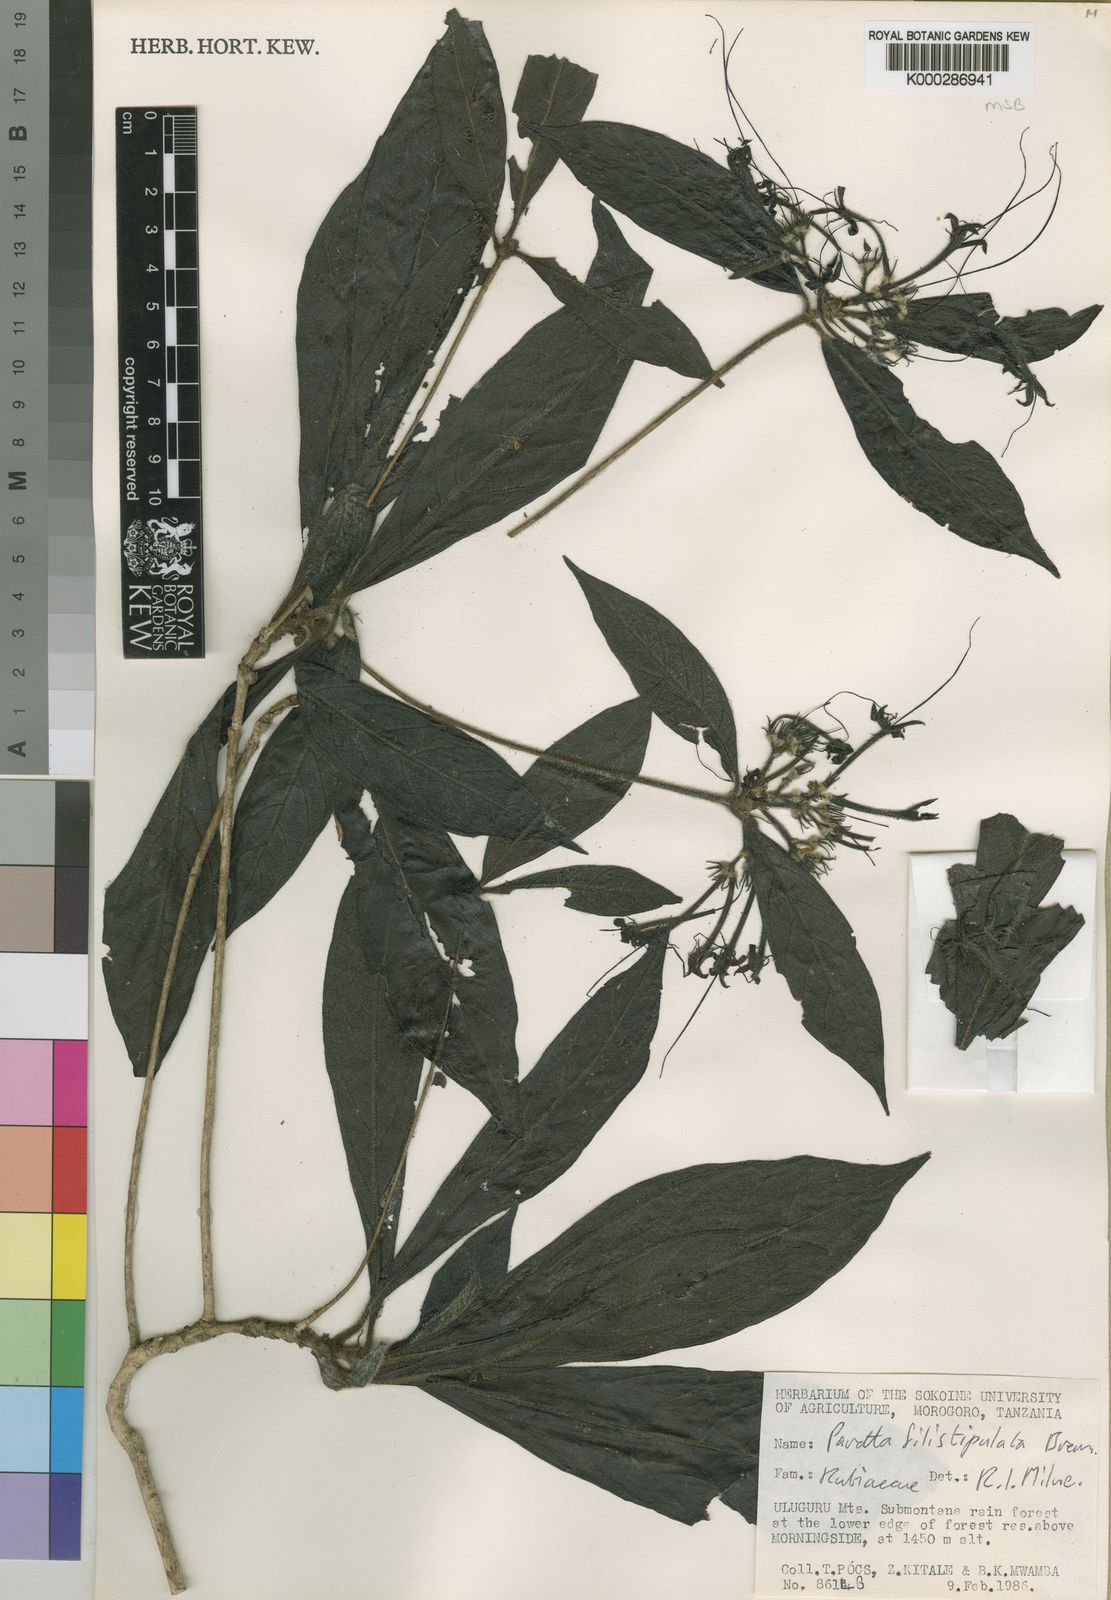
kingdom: Plantae
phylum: Tracheophyta
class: Magnoliopsida
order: Gentianales
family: Rubiaceae
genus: Pavetta
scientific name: Pavetta filistipulata
